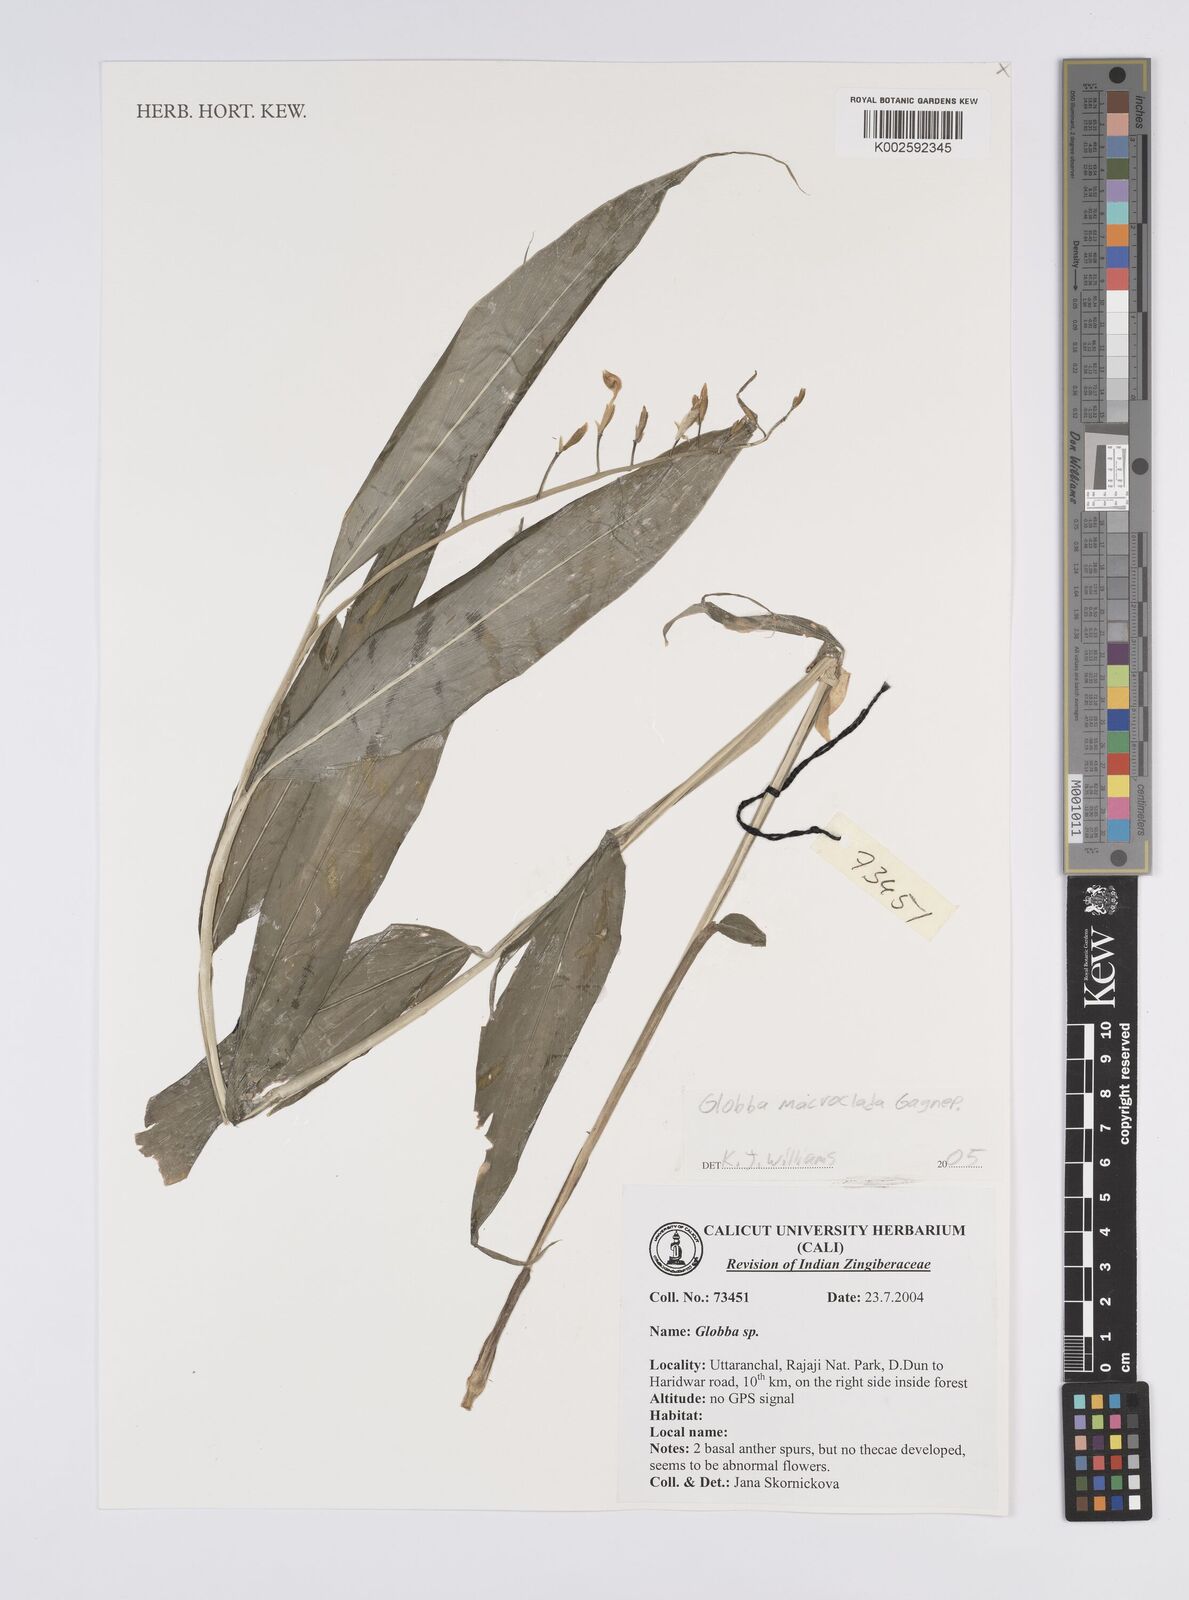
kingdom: Plantae
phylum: Tracheophyta
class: Liliopsida
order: Zingiberales
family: Zingiberaceae
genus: Globba
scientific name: Globba macroclada
